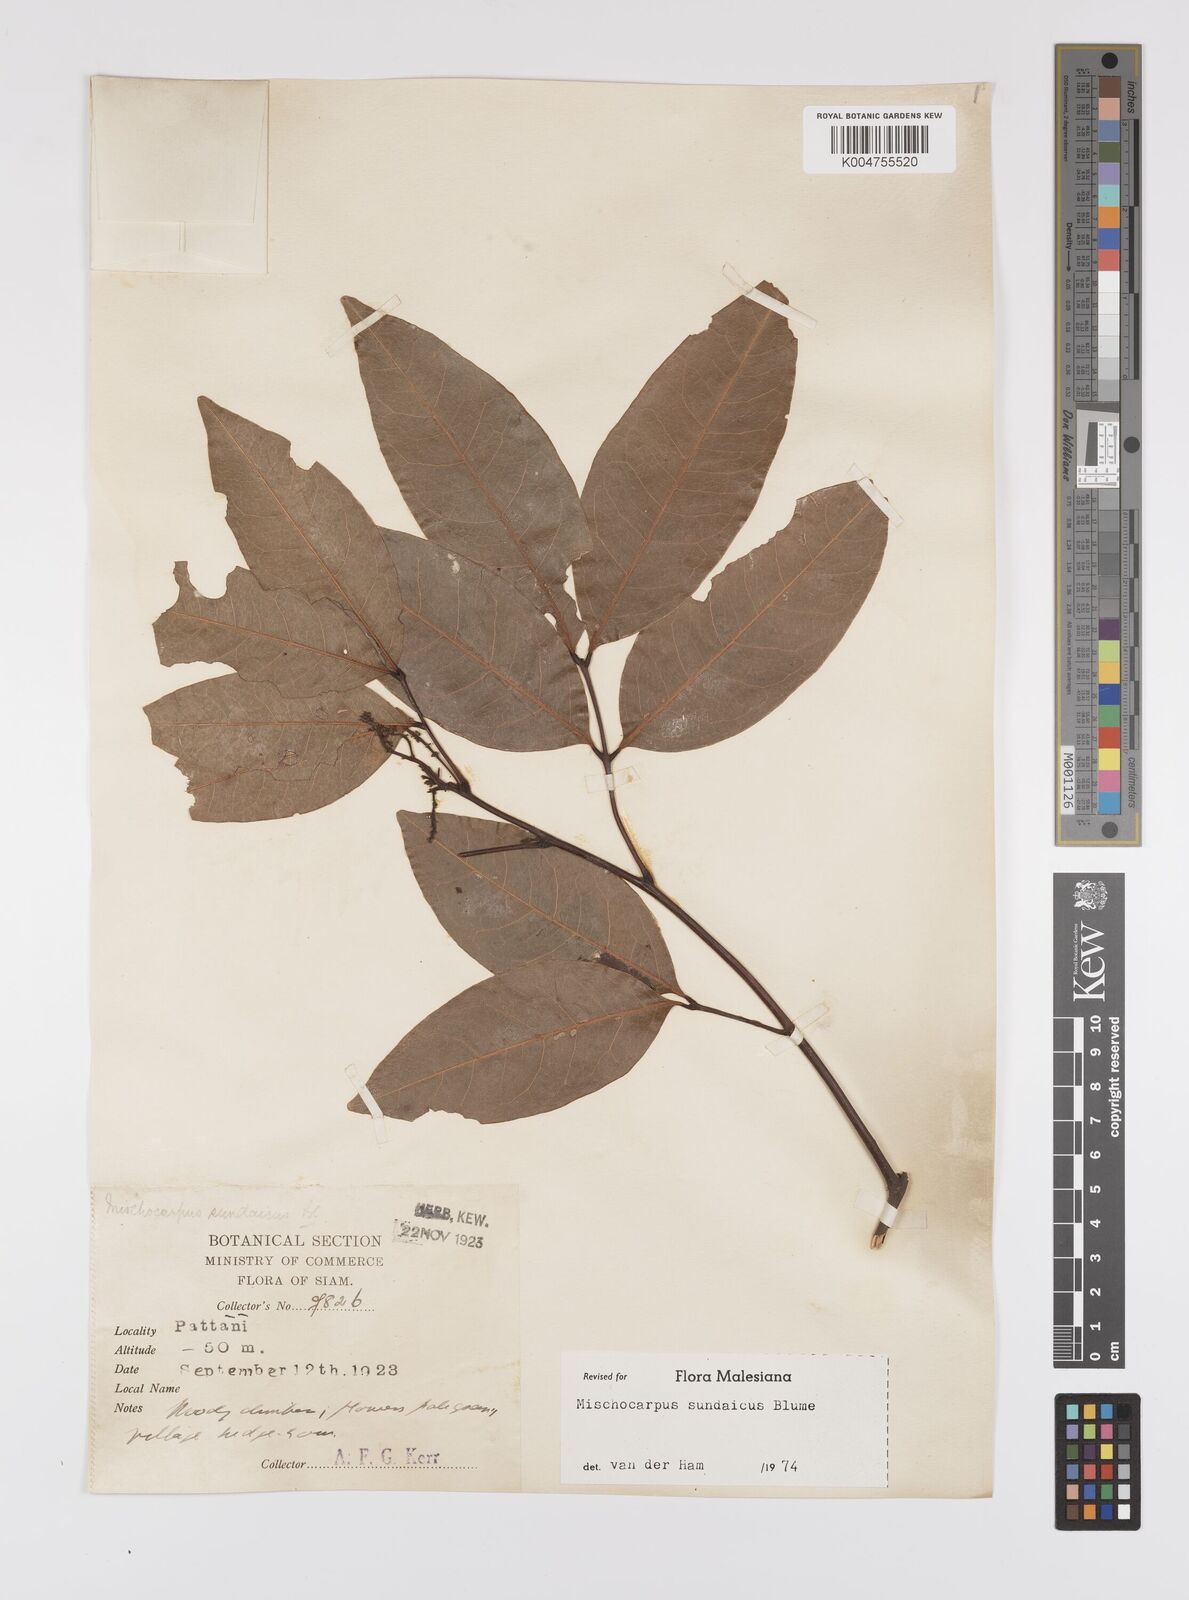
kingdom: Plantae
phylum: Tracheophyta
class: Magnoliopsida
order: Sapindales
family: Sapindaceae
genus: Mischocarpus
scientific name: Mischocarpus sundaicus
